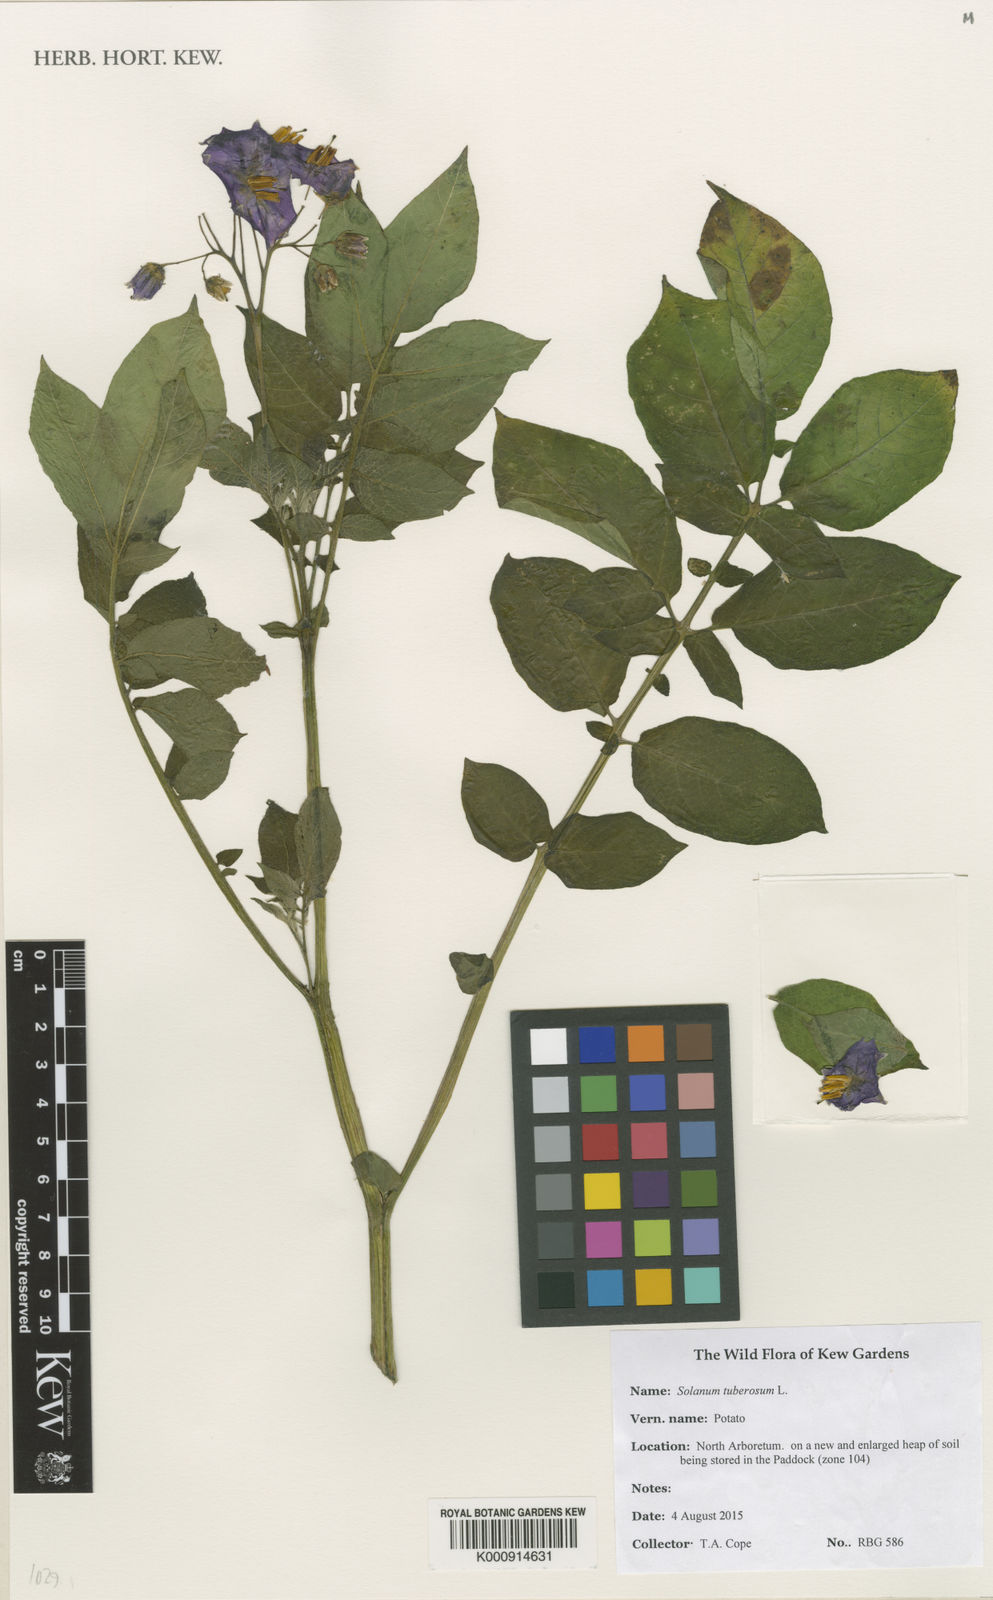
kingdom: Plantae
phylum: Tracheophyta
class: Magnoliopsida
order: Solanales
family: Solanaceae
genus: Solanum
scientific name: Solanum tuberosum
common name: Potato
